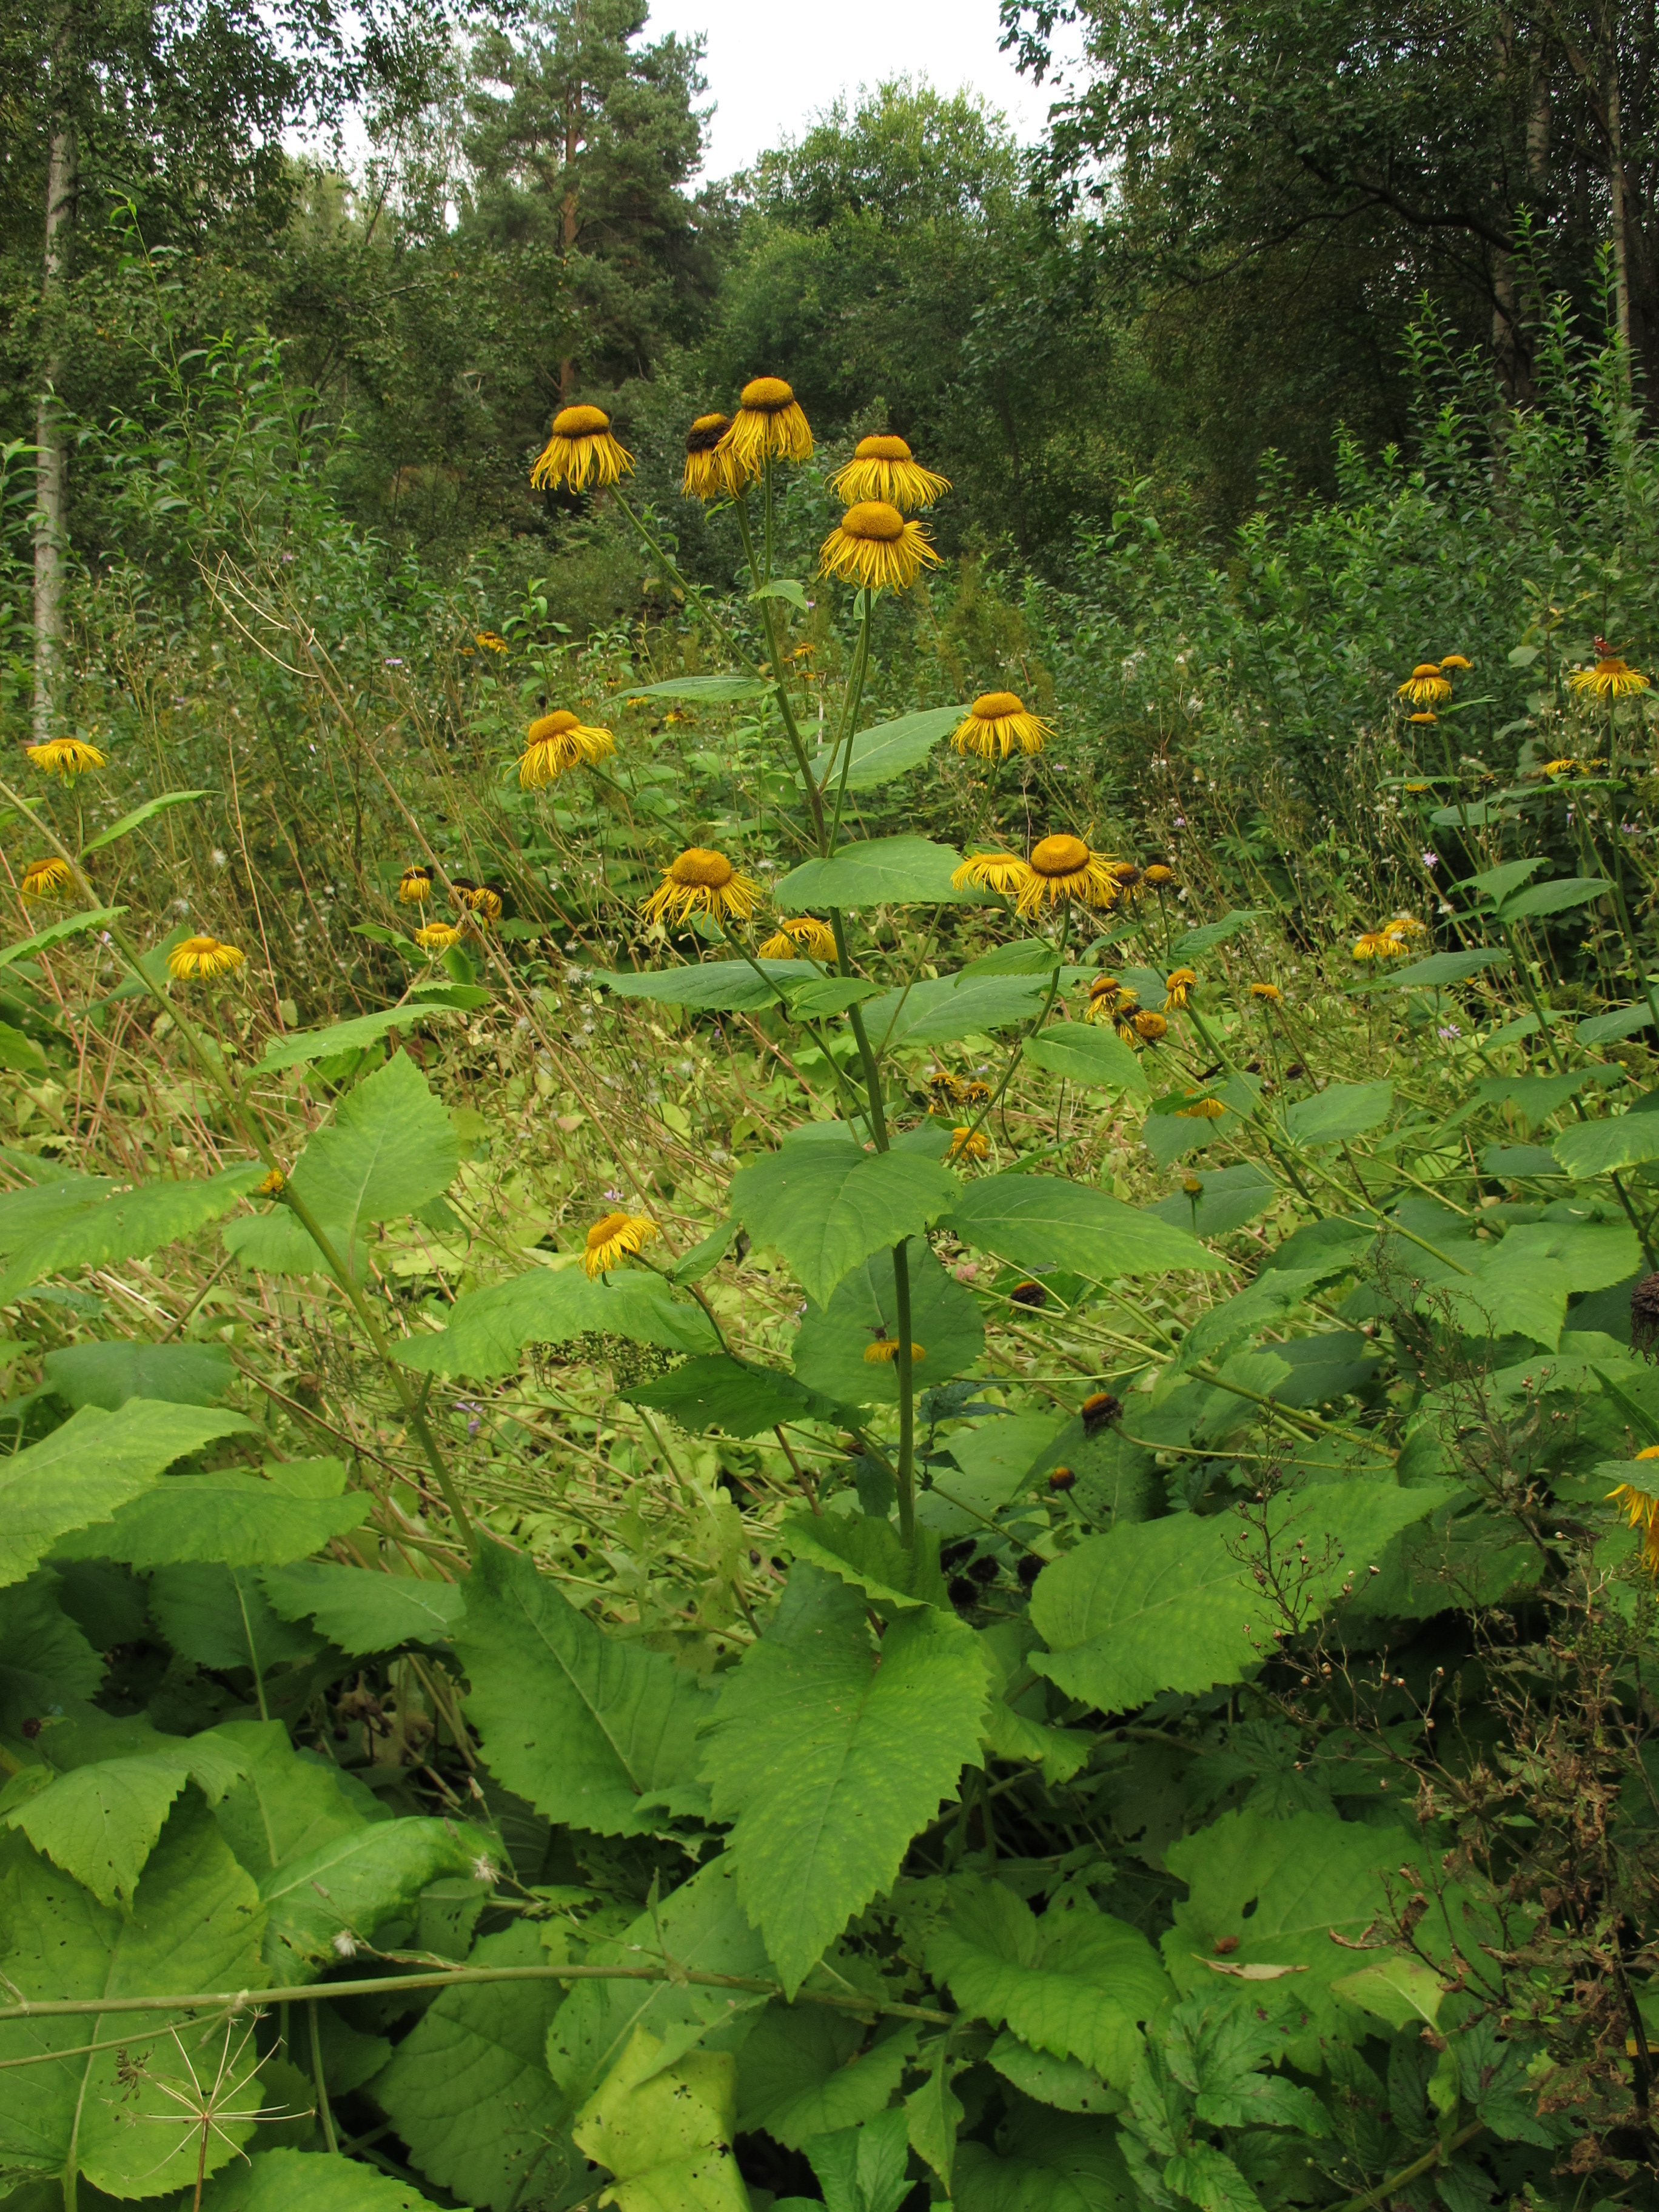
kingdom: Plantae
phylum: Tracheophyta
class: Magnoliopsida
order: Asterales
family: Asteraceae
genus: Telekia
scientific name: Telekia speciosa
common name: Yellow oxeye
